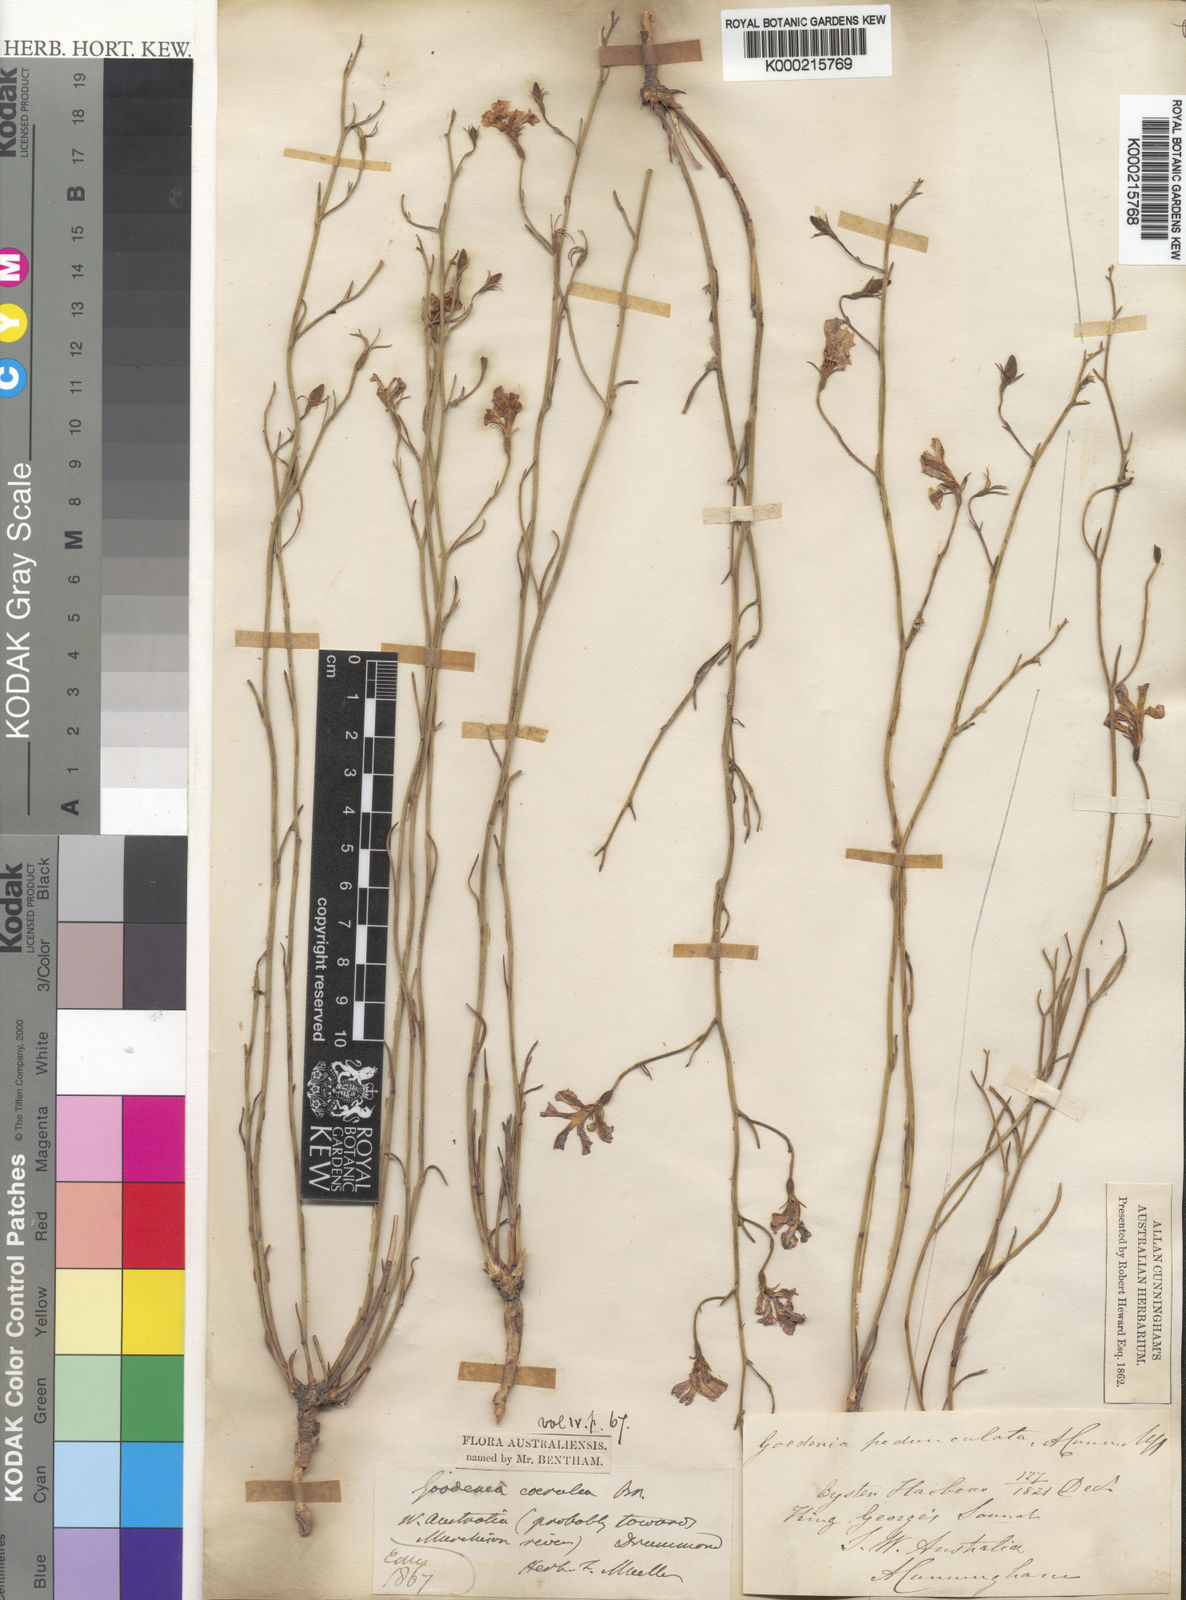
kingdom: Plantae
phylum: Tracheophyta
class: Magnoliopsida
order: Asterales
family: Goodeniaceae
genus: Goodenia
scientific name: Goodenia caerulea
